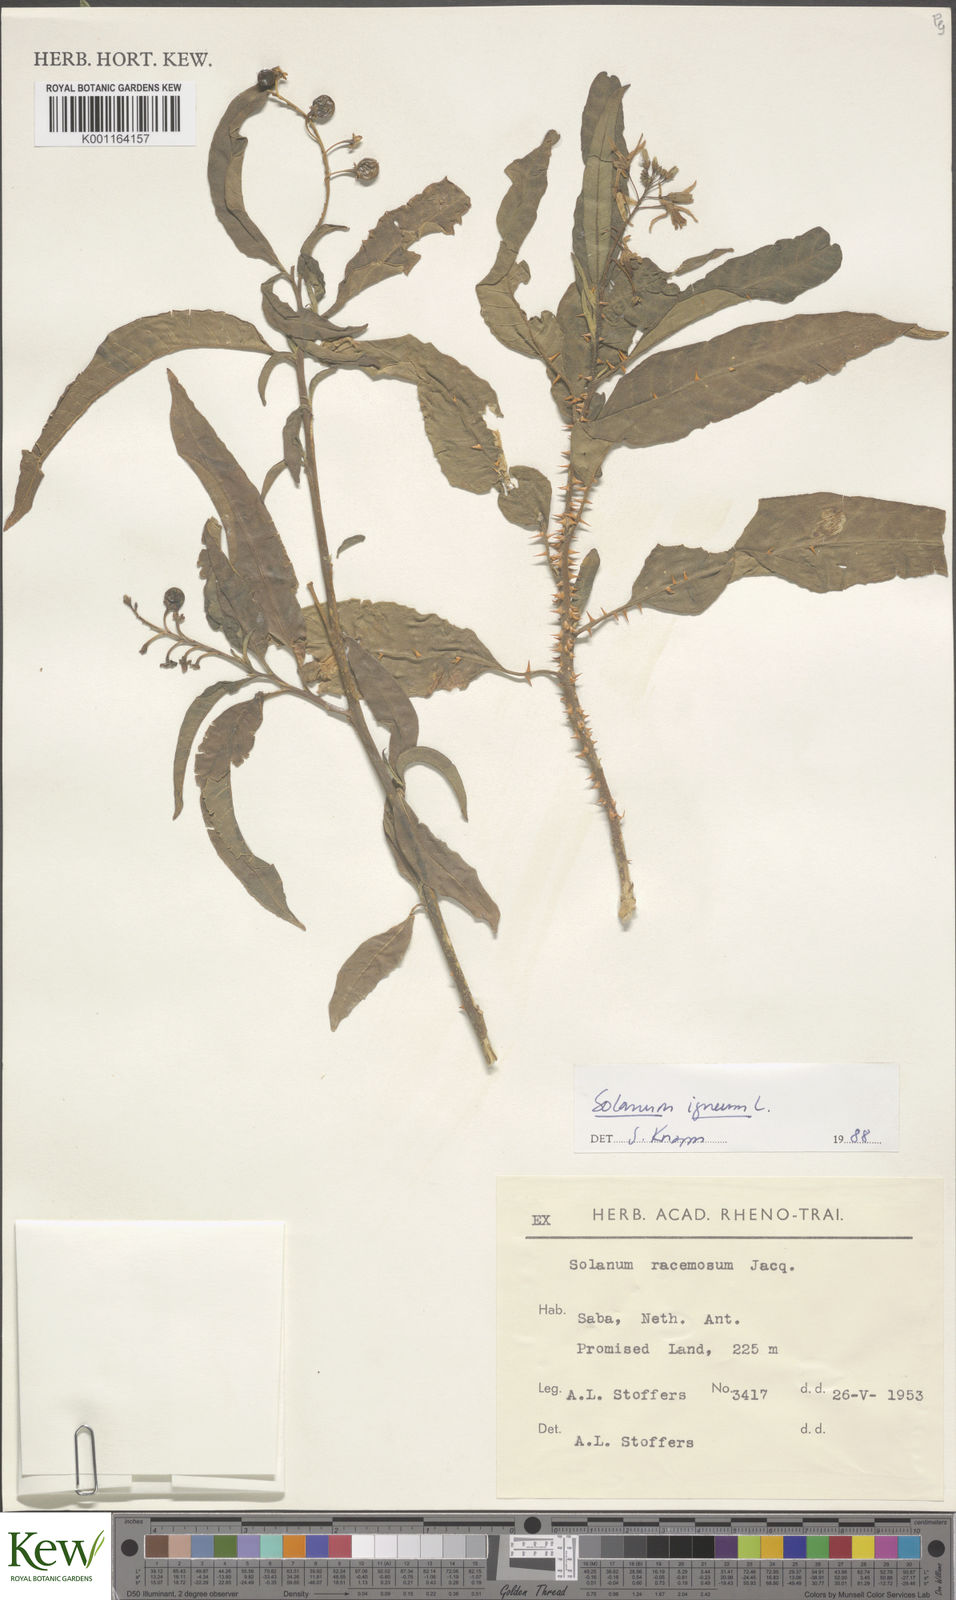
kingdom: Plantae
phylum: Tracheophyta
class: Magnoliopsida
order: Solanales
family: Solanaceae
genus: Solanum
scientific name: Solanum bahamense
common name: Canker-berry
